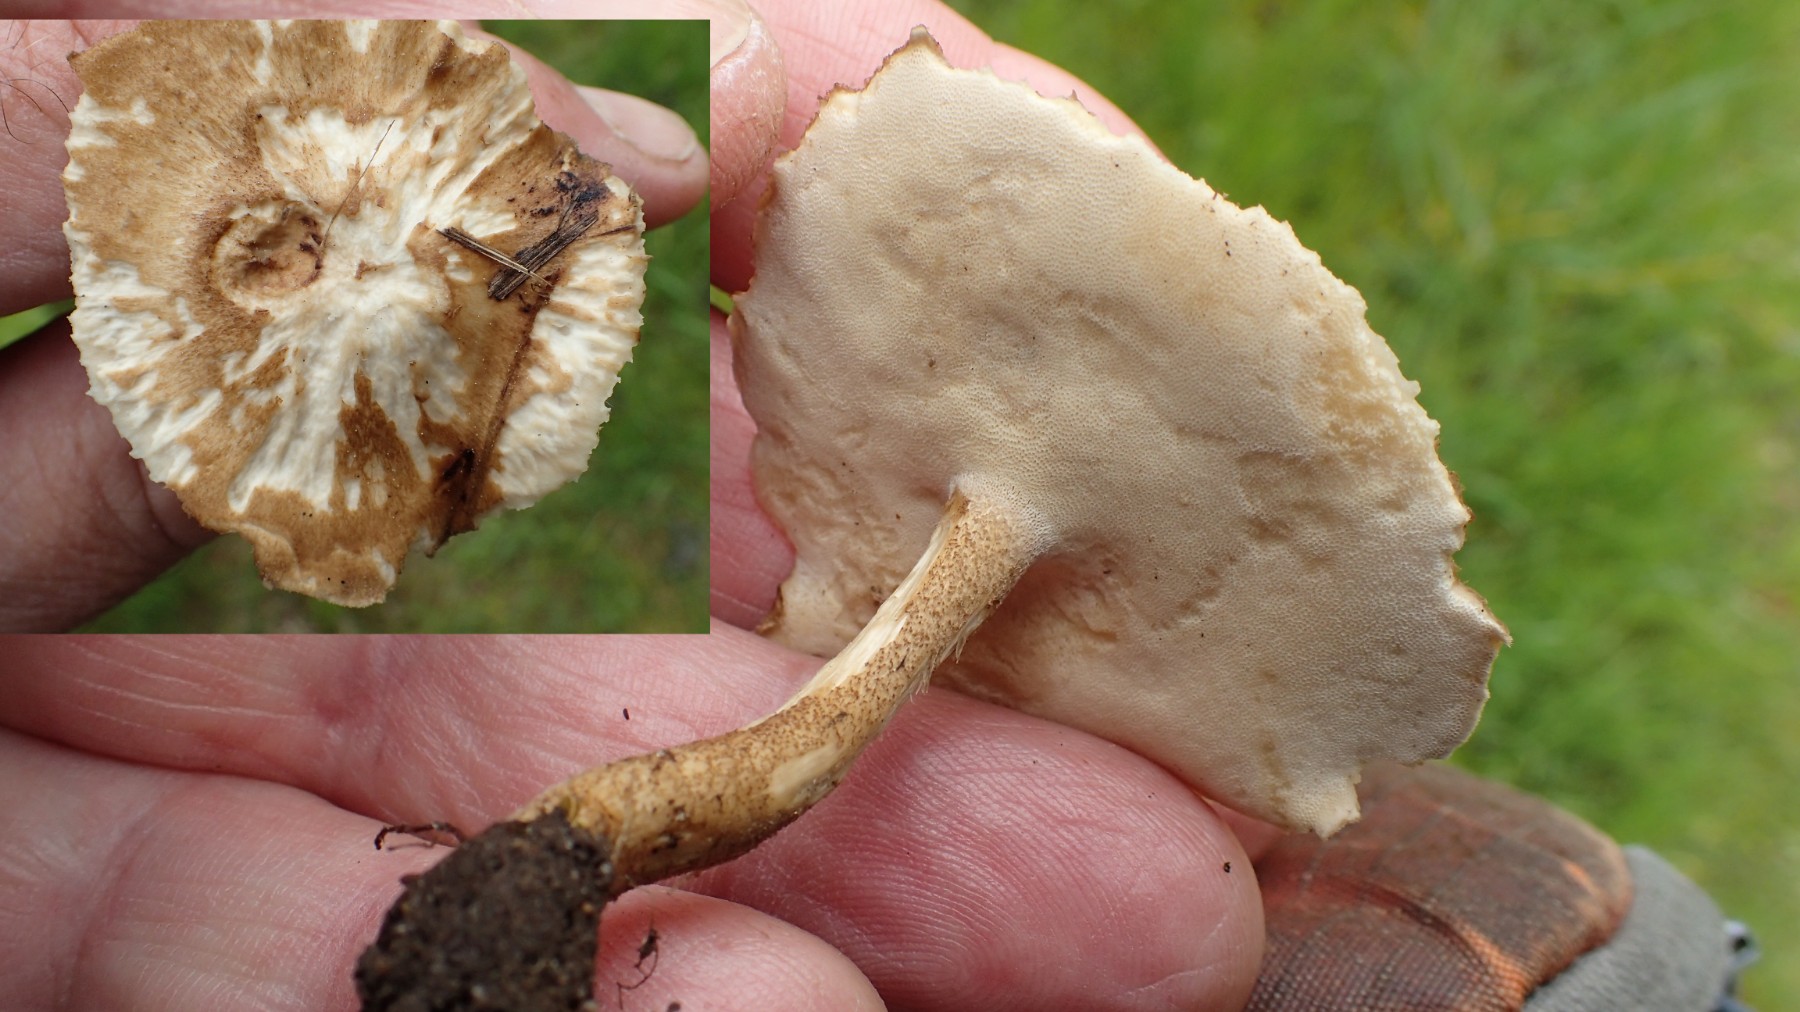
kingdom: Fungi
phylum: Basidiomycota
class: Agaricomycetes
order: Polyporales
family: Polyporaceae
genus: Cerioporus
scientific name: Cerioporus varius
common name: foranderlig stilkporesvamp
